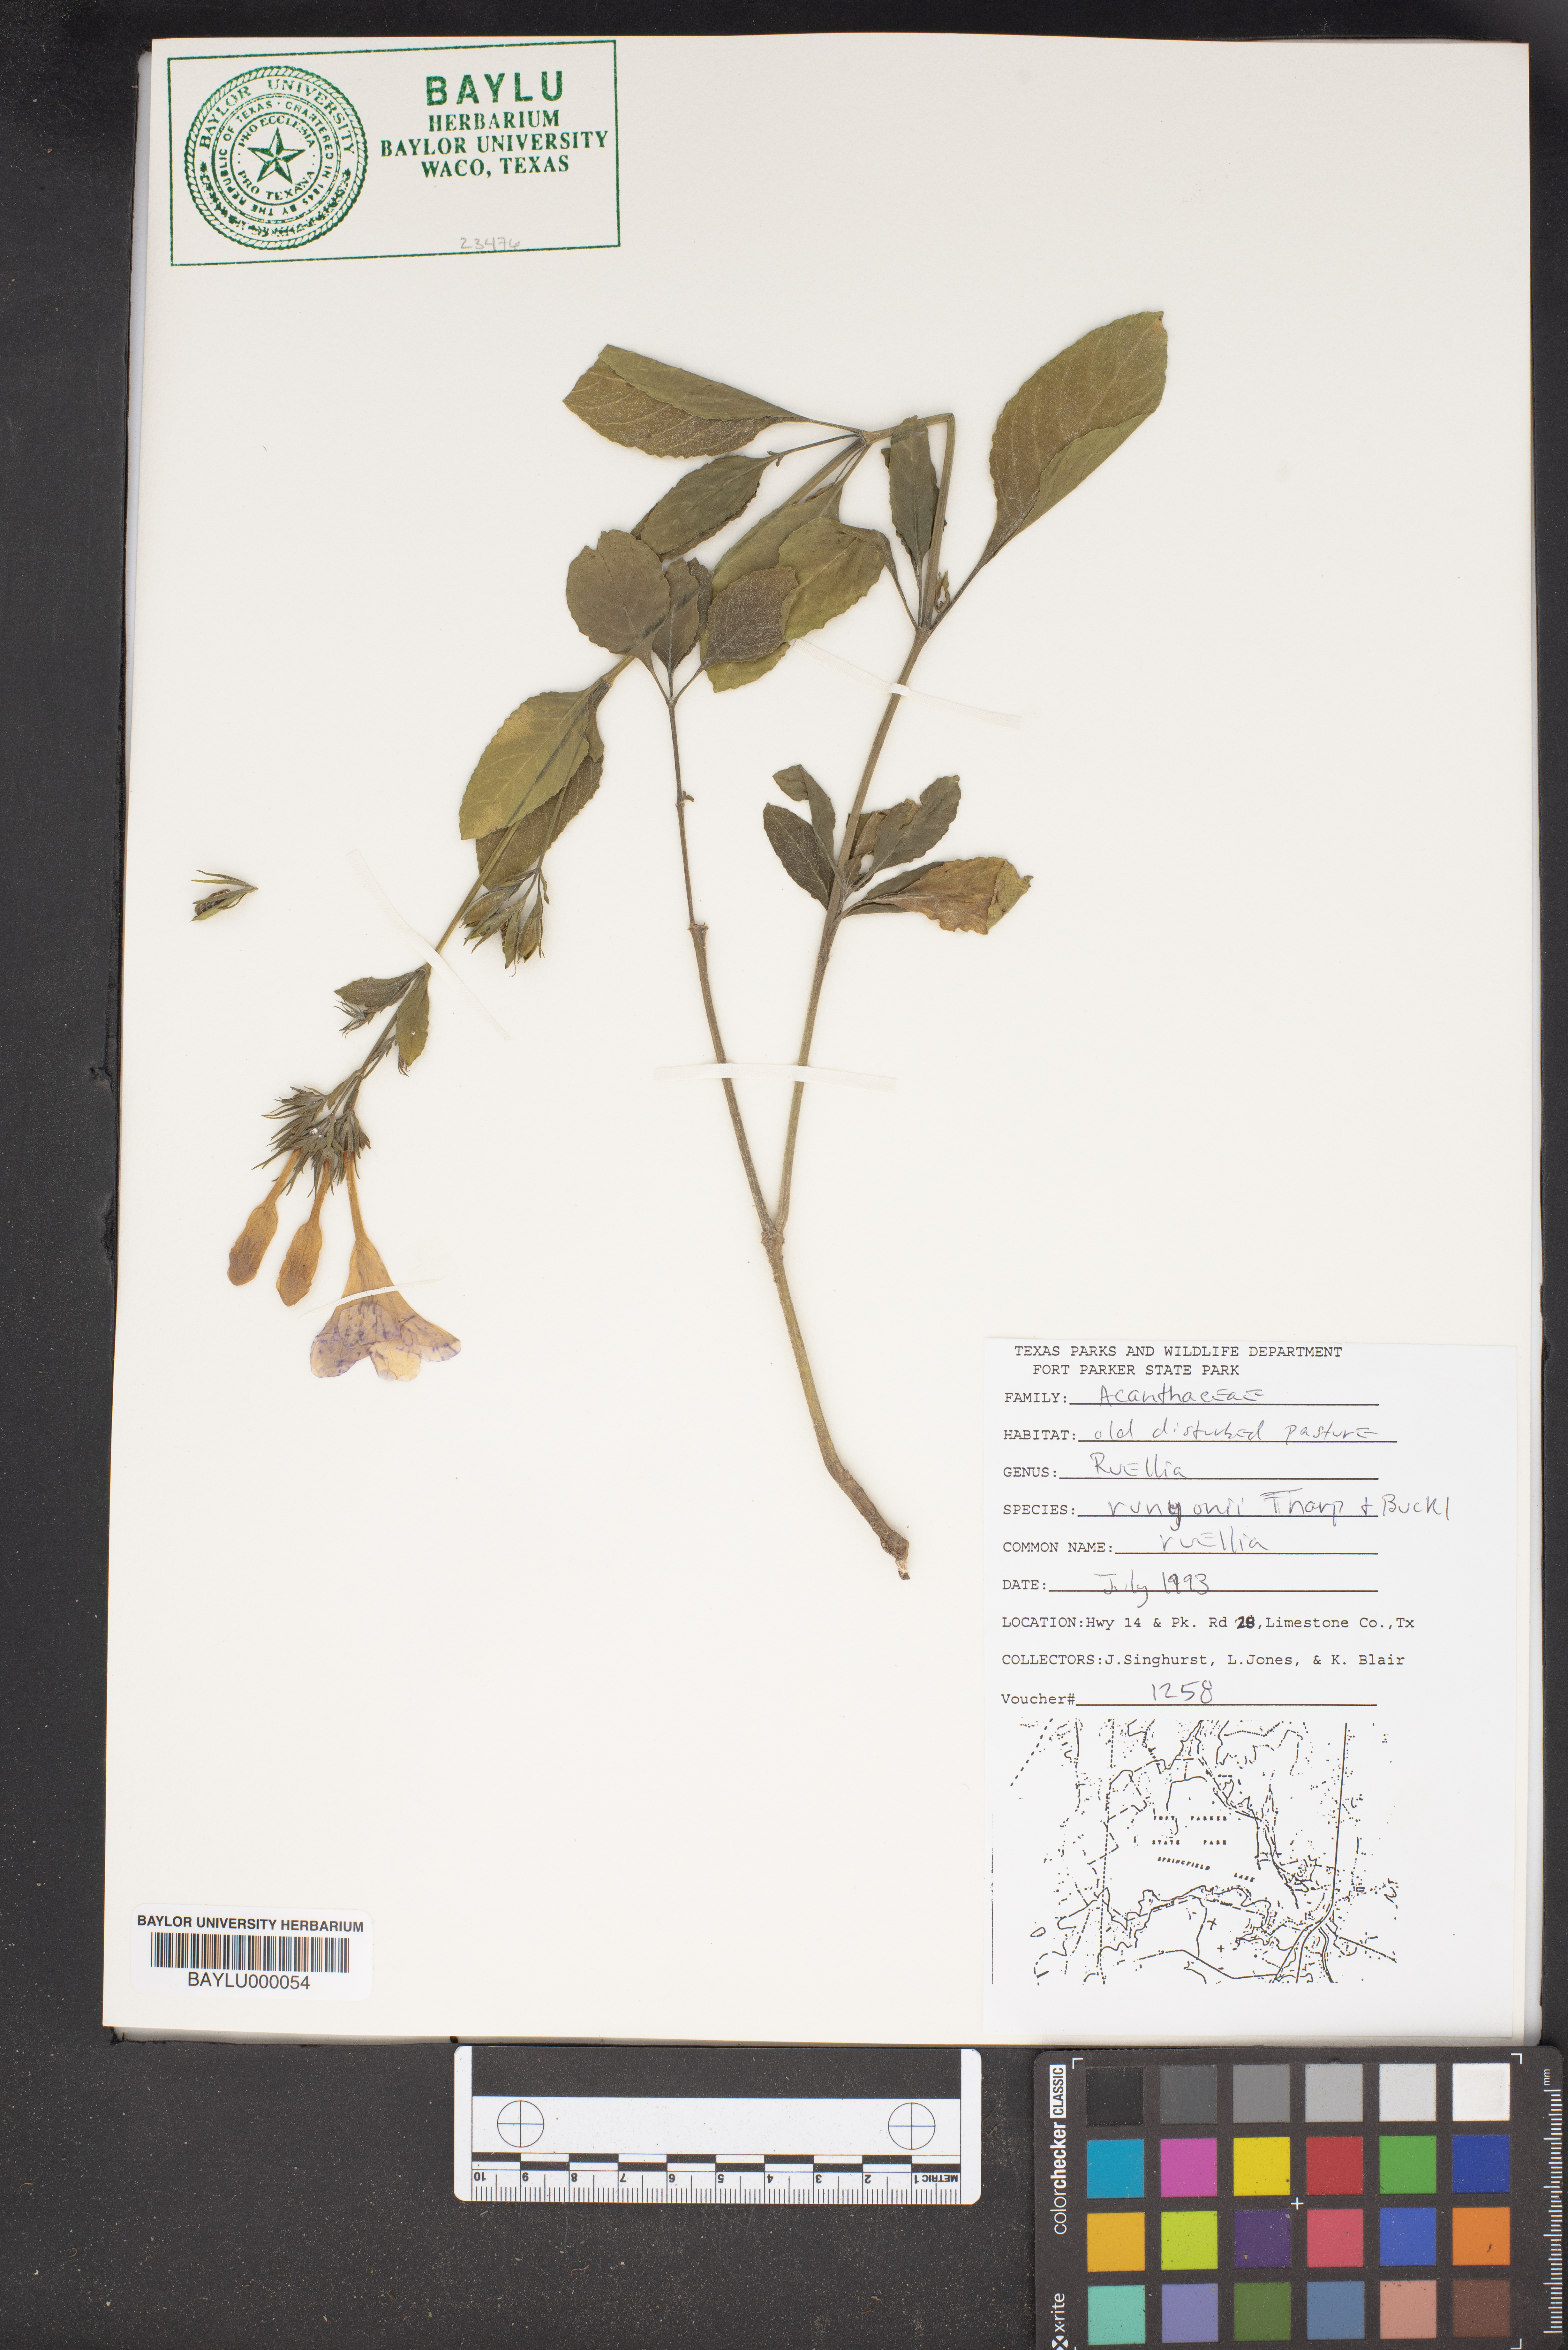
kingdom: Plantae
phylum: Tracheophyta
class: Magnoliopsida
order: Lamiales
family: Acanthaceae
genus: Ruellia
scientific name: Ruellia ciliatiflora
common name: Hairyflower wild petunia
